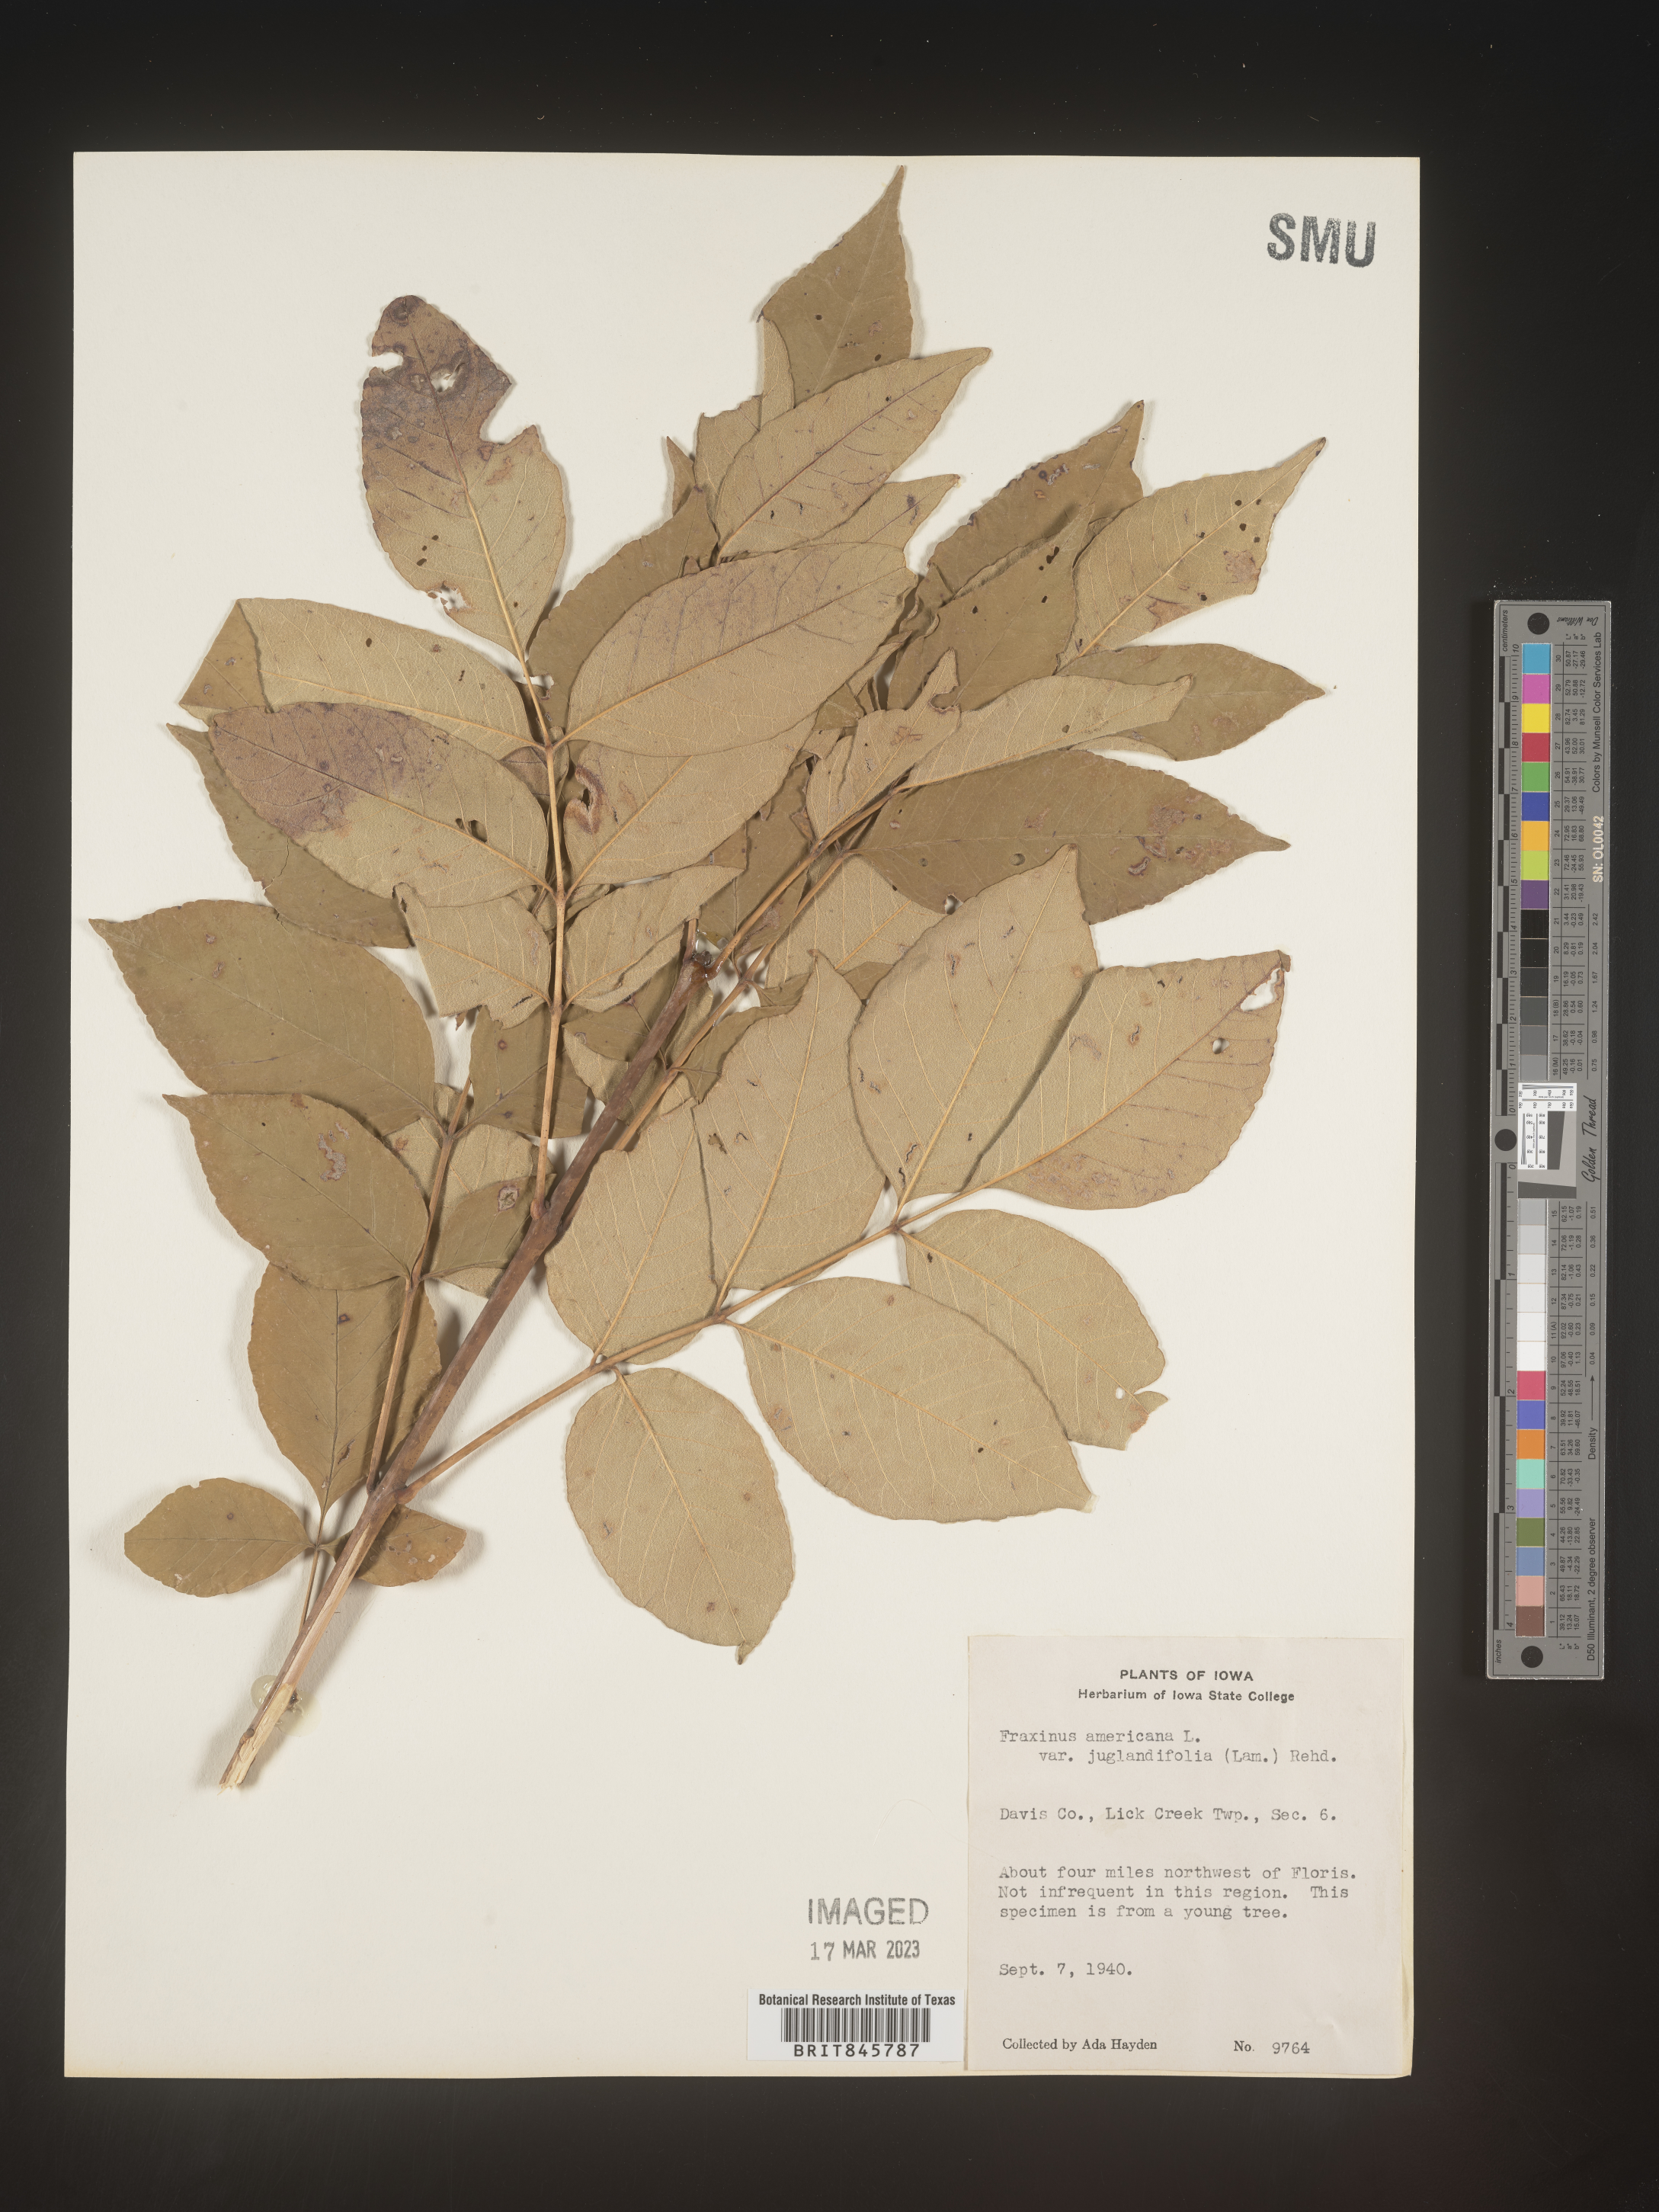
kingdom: Plantae
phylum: Tracheophyta
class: Magnoliopsida
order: Lamiales
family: Oleaceae
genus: Fraxinus
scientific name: Fraxinus americana
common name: White ash
